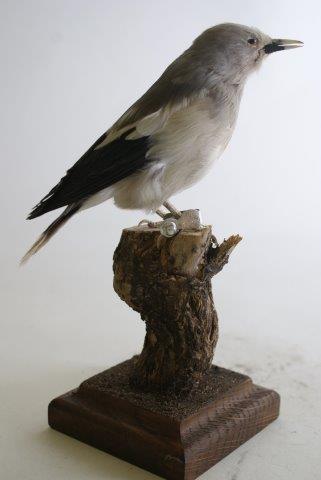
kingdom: Animalia
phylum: Chordata
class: Aves
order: Passeriformes
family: Sturnidae
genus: Sturnus
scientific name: Sturnus
